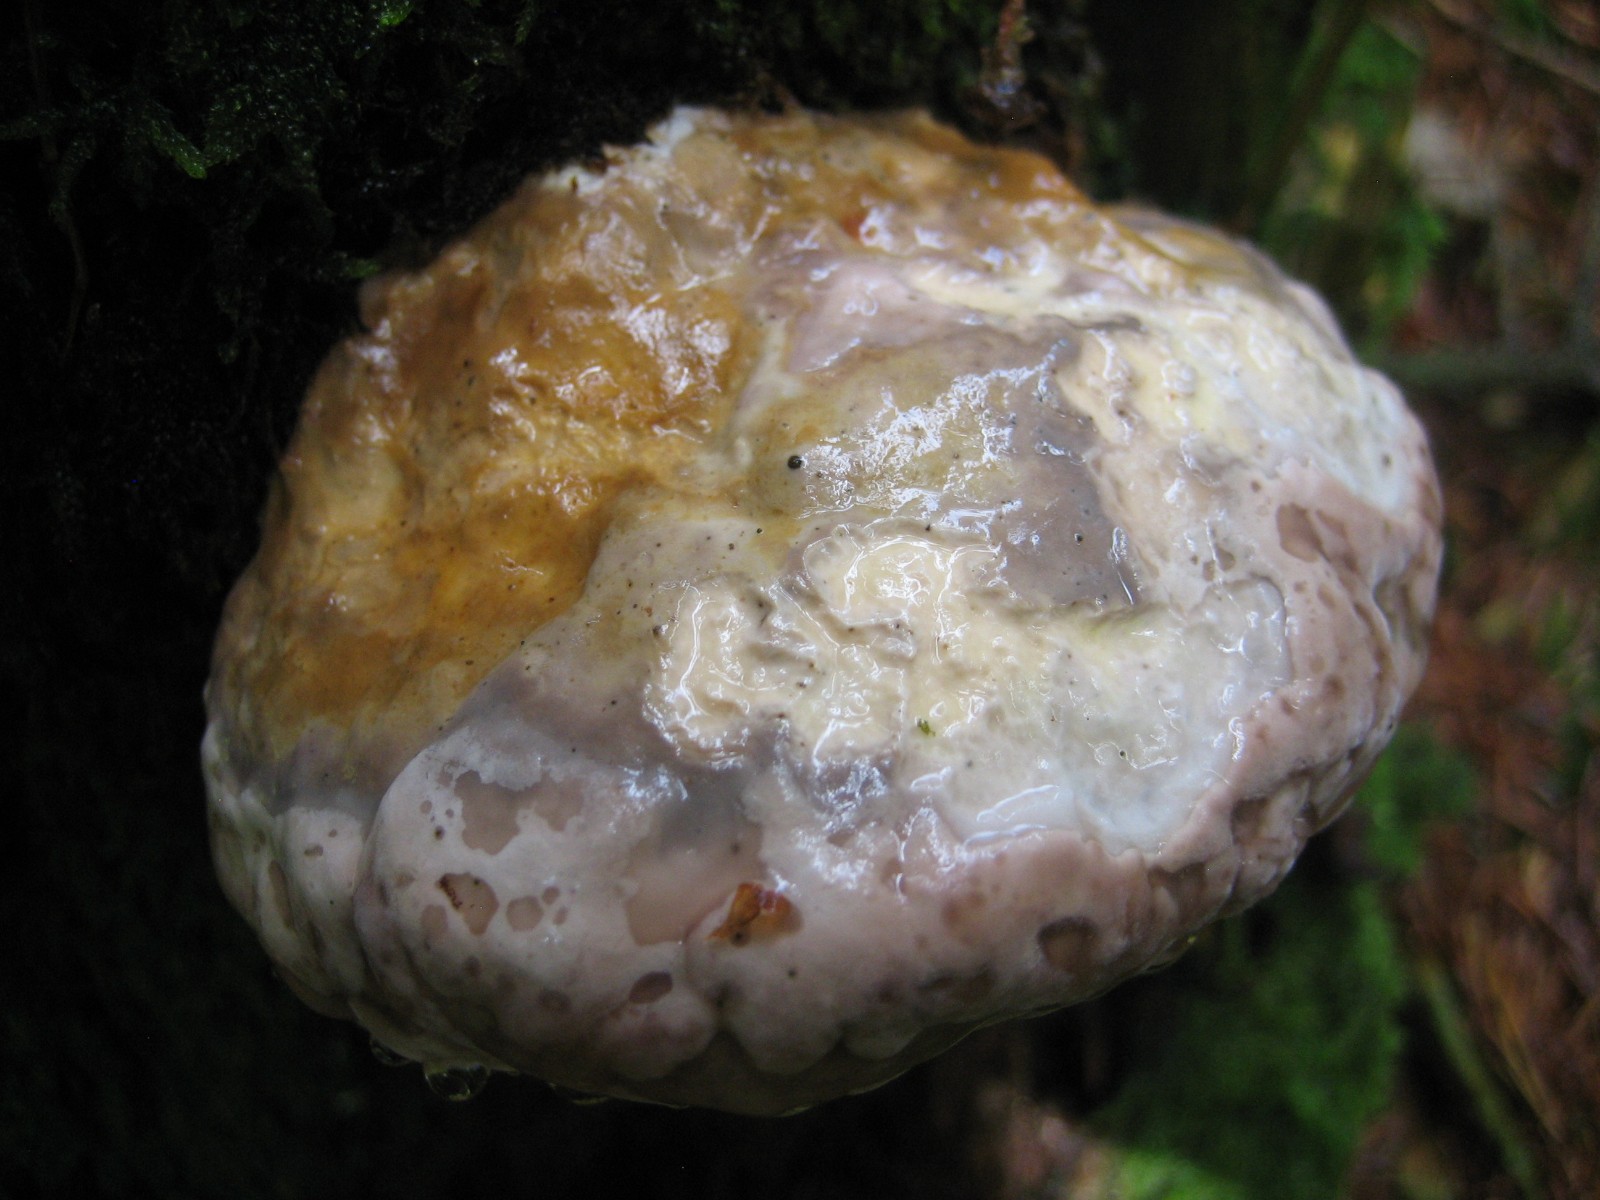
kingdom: Fungi
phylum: Basidiomycota
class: Agaricomycetes
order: Polyporales
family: Fomitopsidaceae
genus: Fomitopsis
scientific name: Fomitopsis pinicola
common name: randbæltet hovporesvamp
